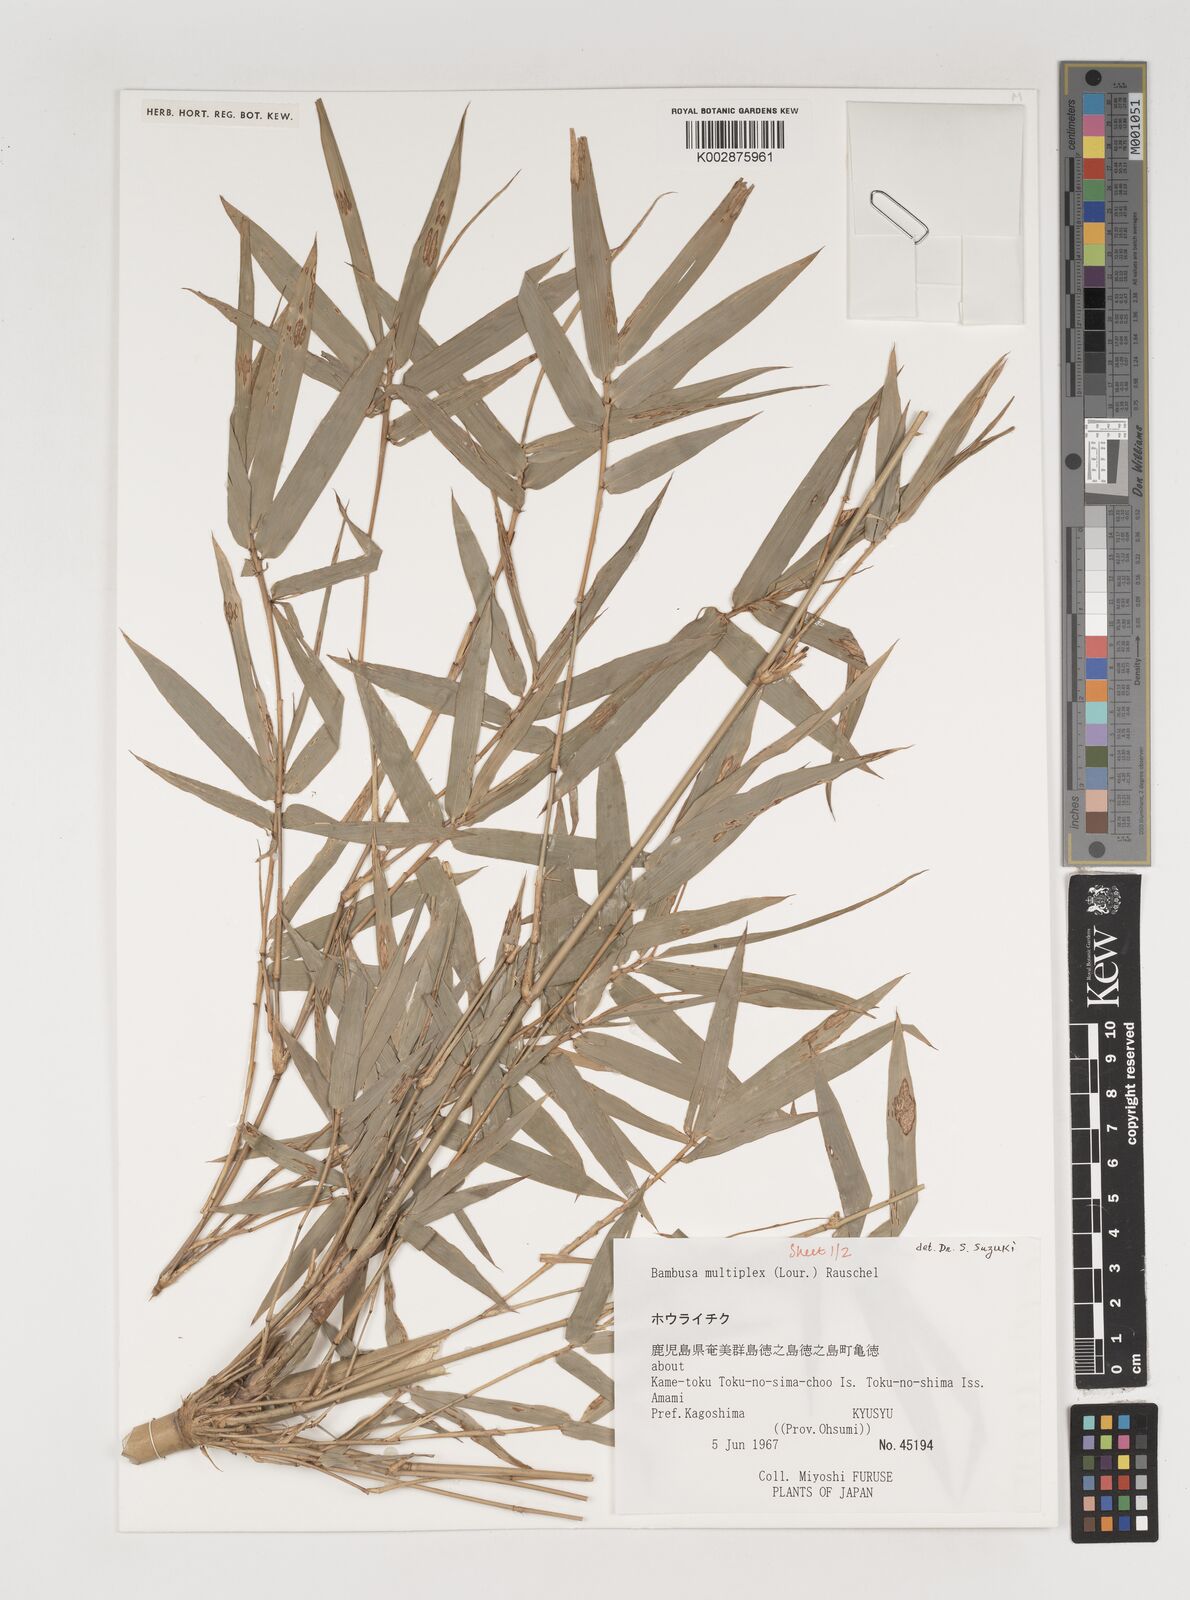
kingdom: Plantae
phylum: Tracheophyta
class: Liliopsida
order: Poales
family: Poaceae
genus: Bambusa
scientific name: Bambusa multiplex
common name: Hedge bamboo
